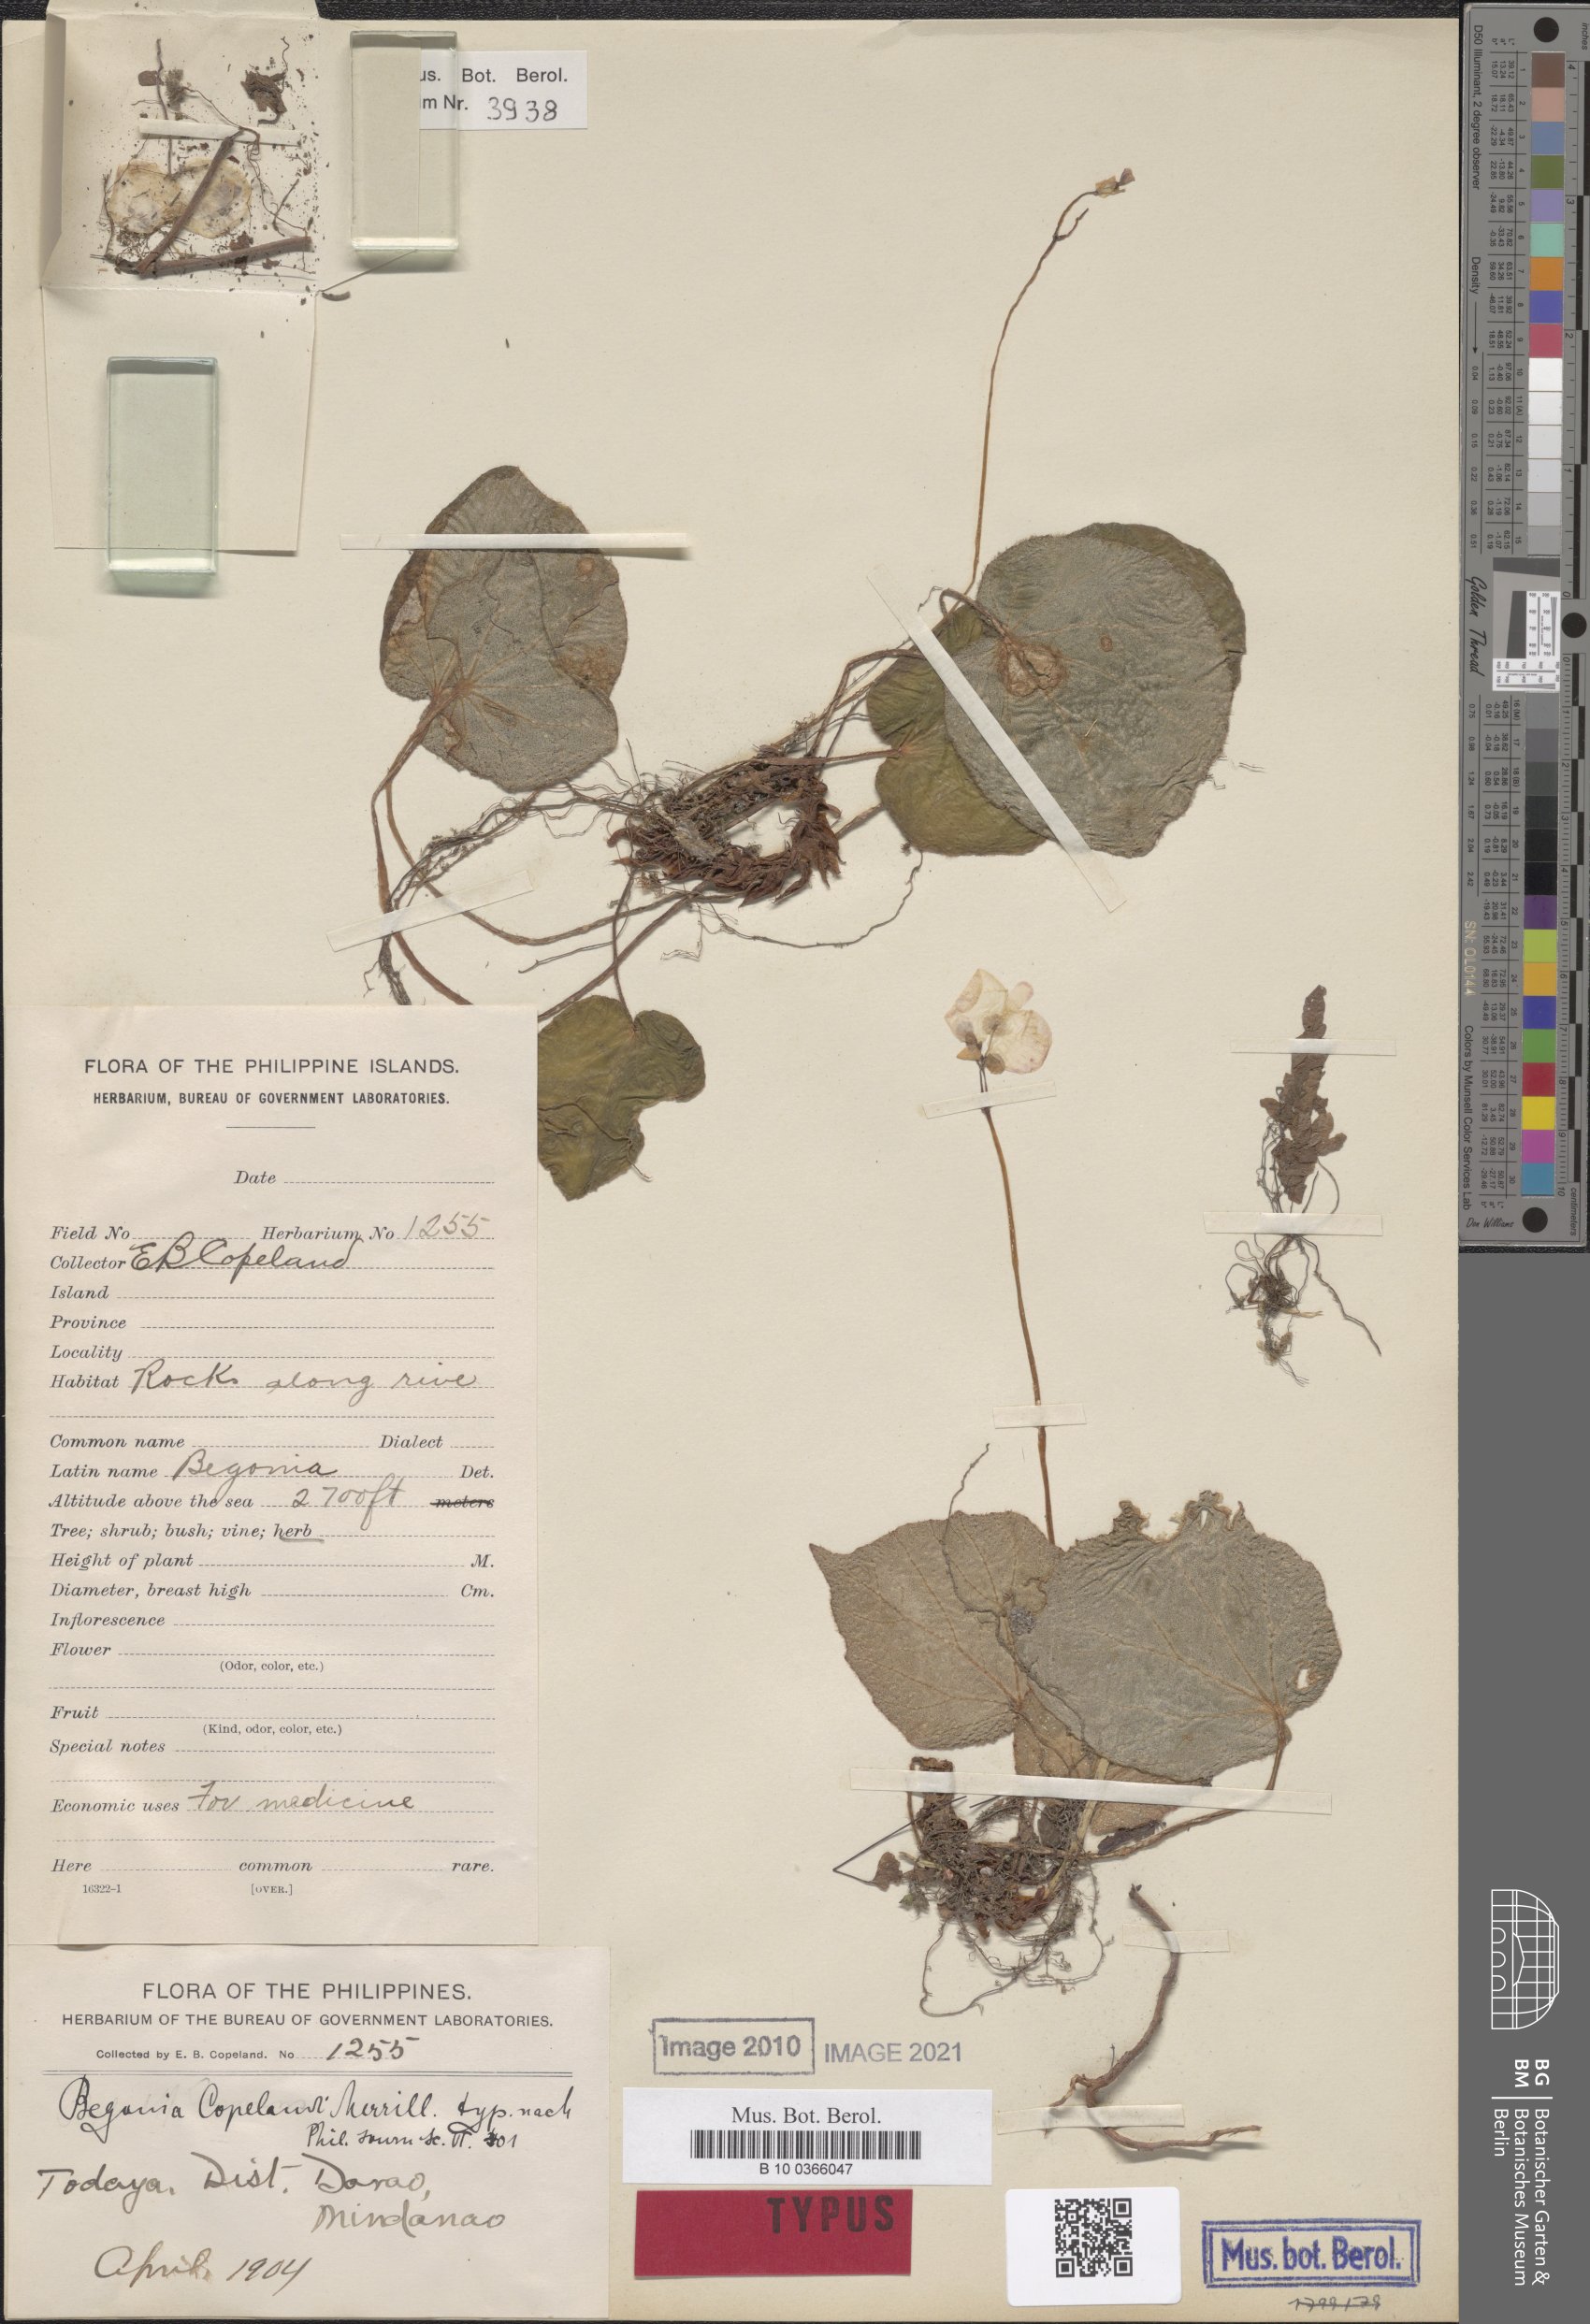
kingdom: Plantae
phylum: Tracheophyta
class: Magnoliopsida
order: Cucurbitales
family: Begoniaceae
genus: Begonia
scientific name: Begonia copelandii
